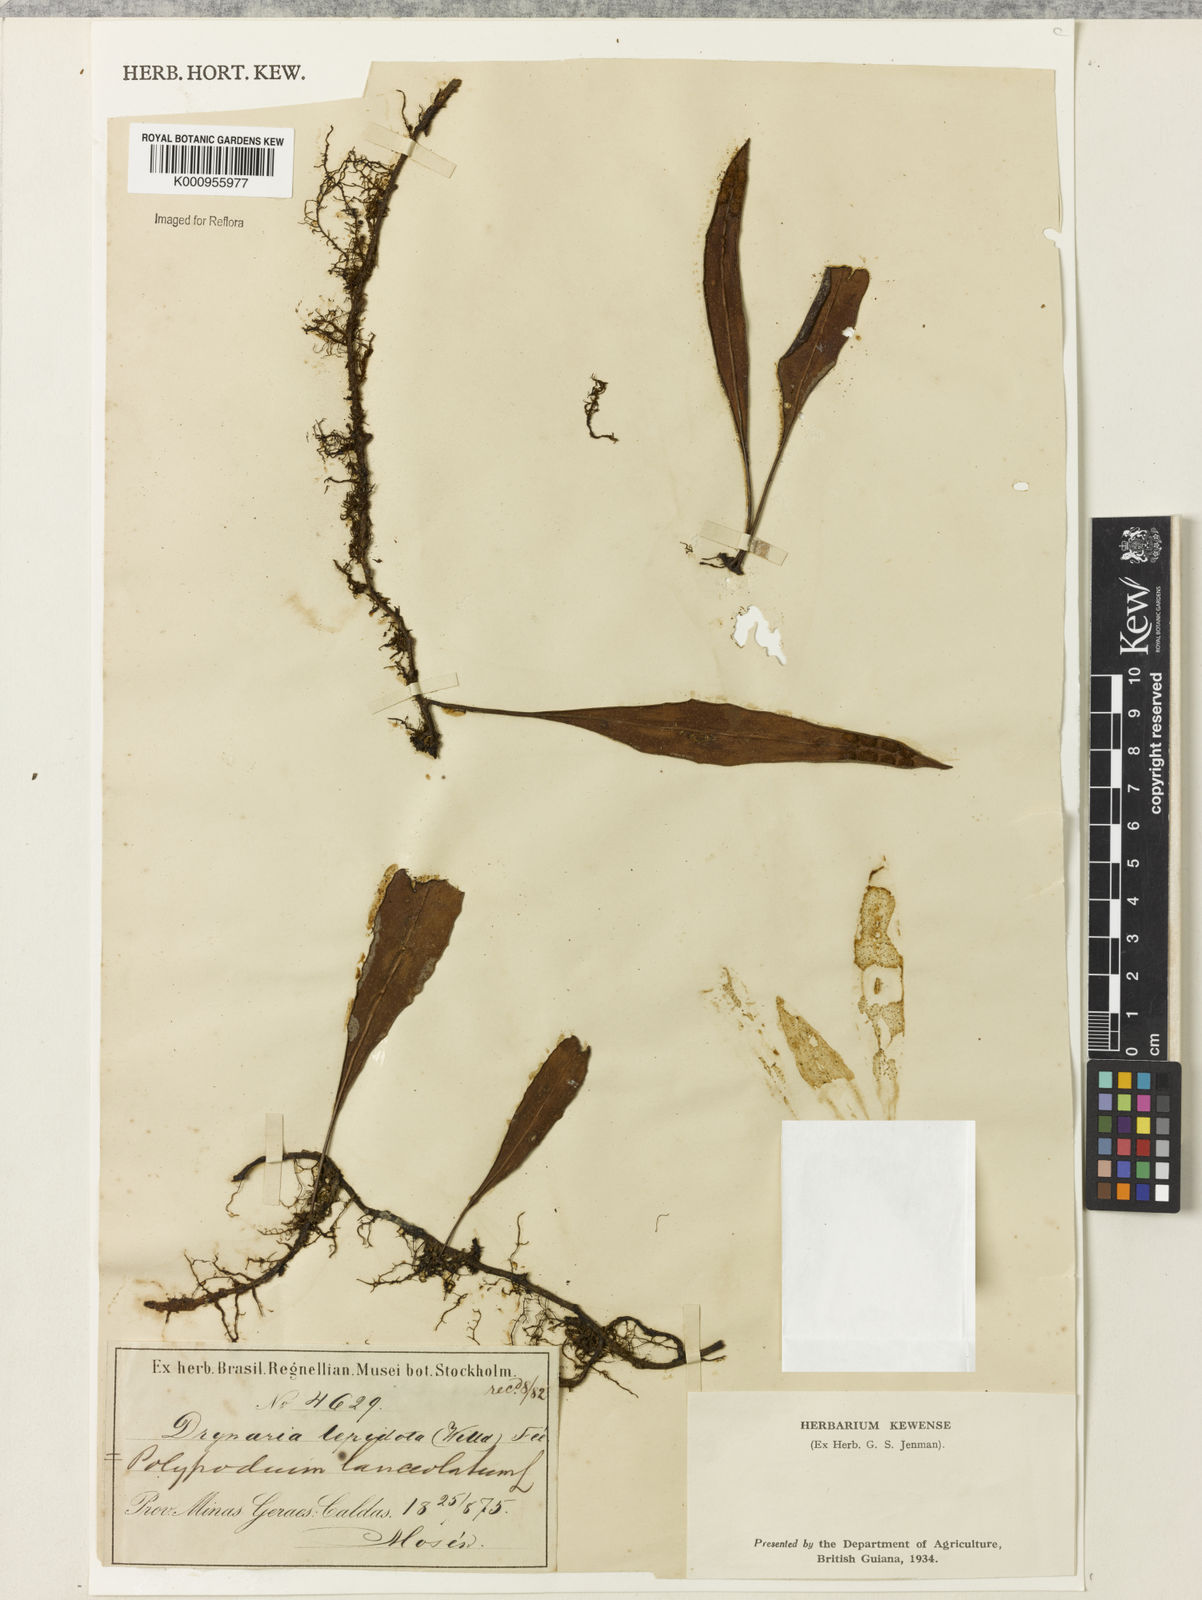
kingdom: Plantae
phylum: Tracheophyta
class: Polypodiopsida
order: Polypodiales
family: Polypodiaceae
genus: Pleopeltis
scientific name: Pleopeltis
